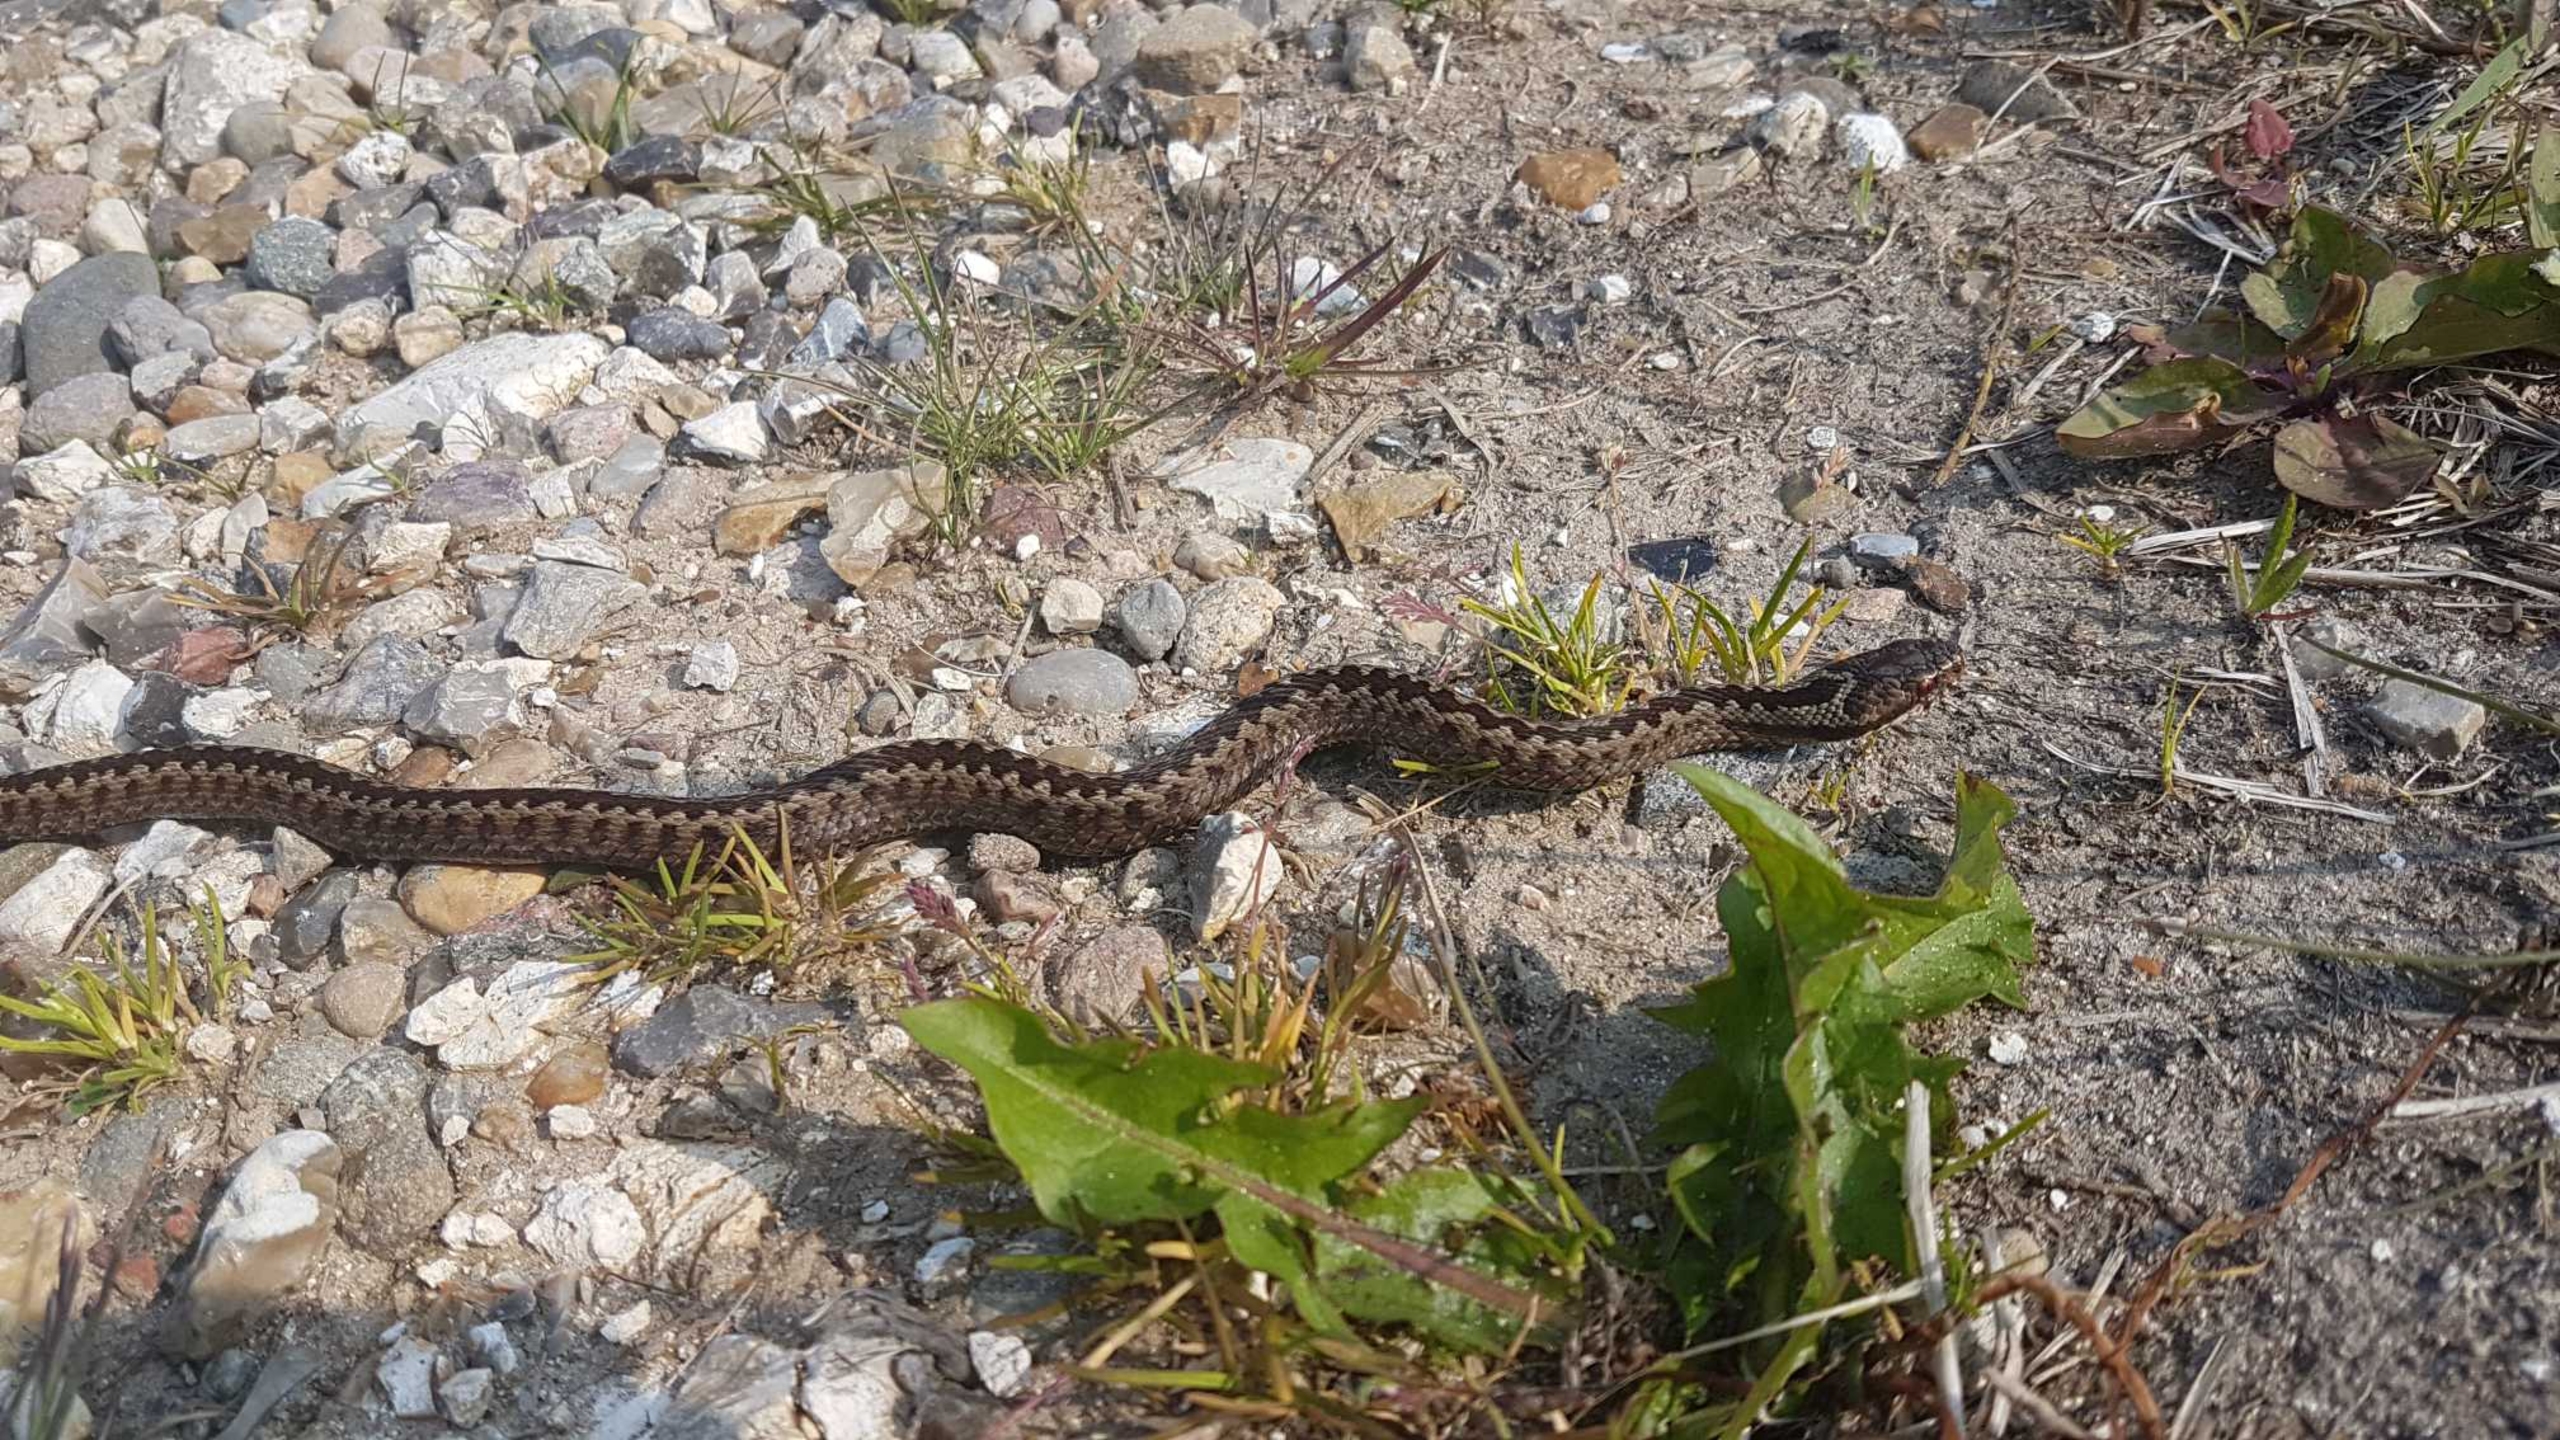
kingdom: Animalia
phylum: Chordata
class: Squamata
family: Viperidae
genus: Vipera
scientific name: Vipera berus
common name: Hugorm
